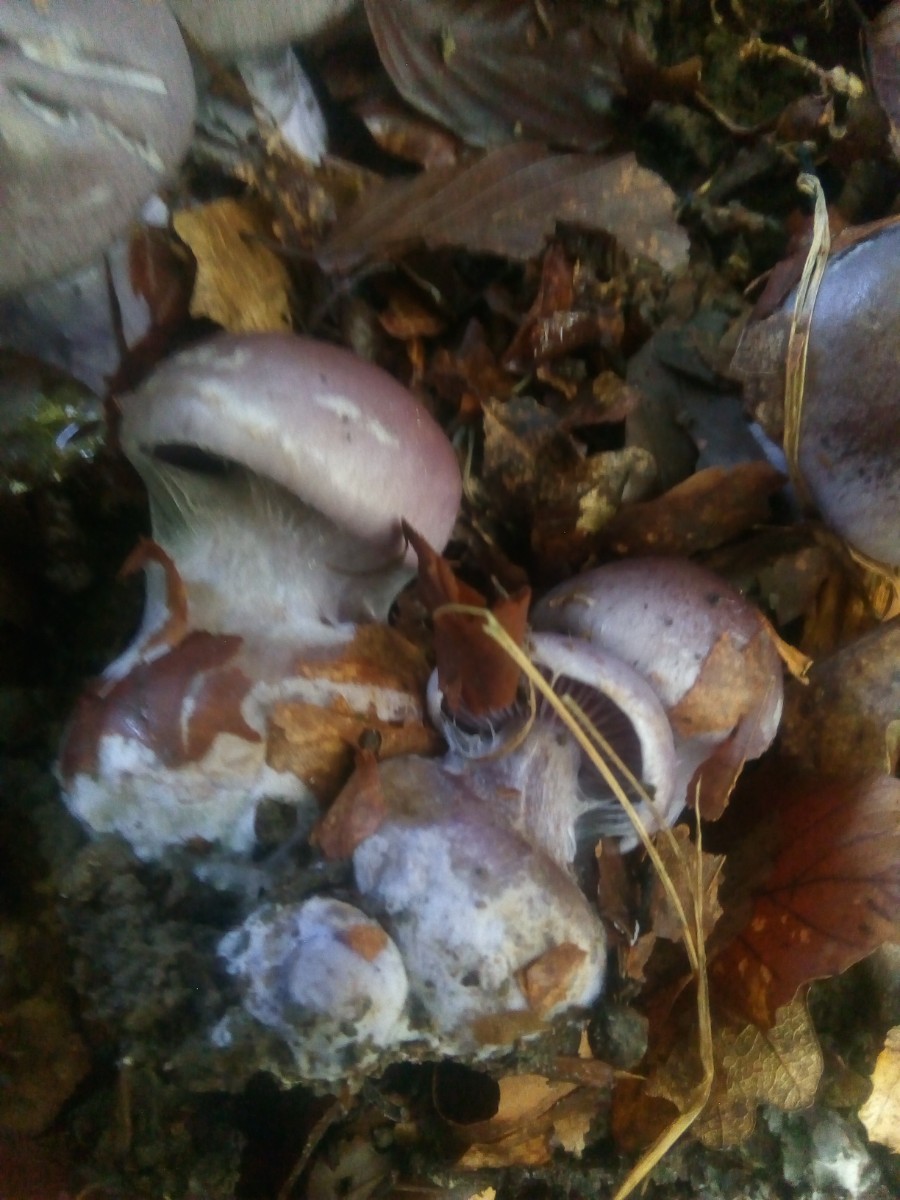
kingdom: Fungi
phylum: Basidiomycota
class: Agaricomycetes
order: Agaricales
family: Cortinariaceae
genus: Thaxterogaster
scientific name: Thaxterogaster collocandoides
